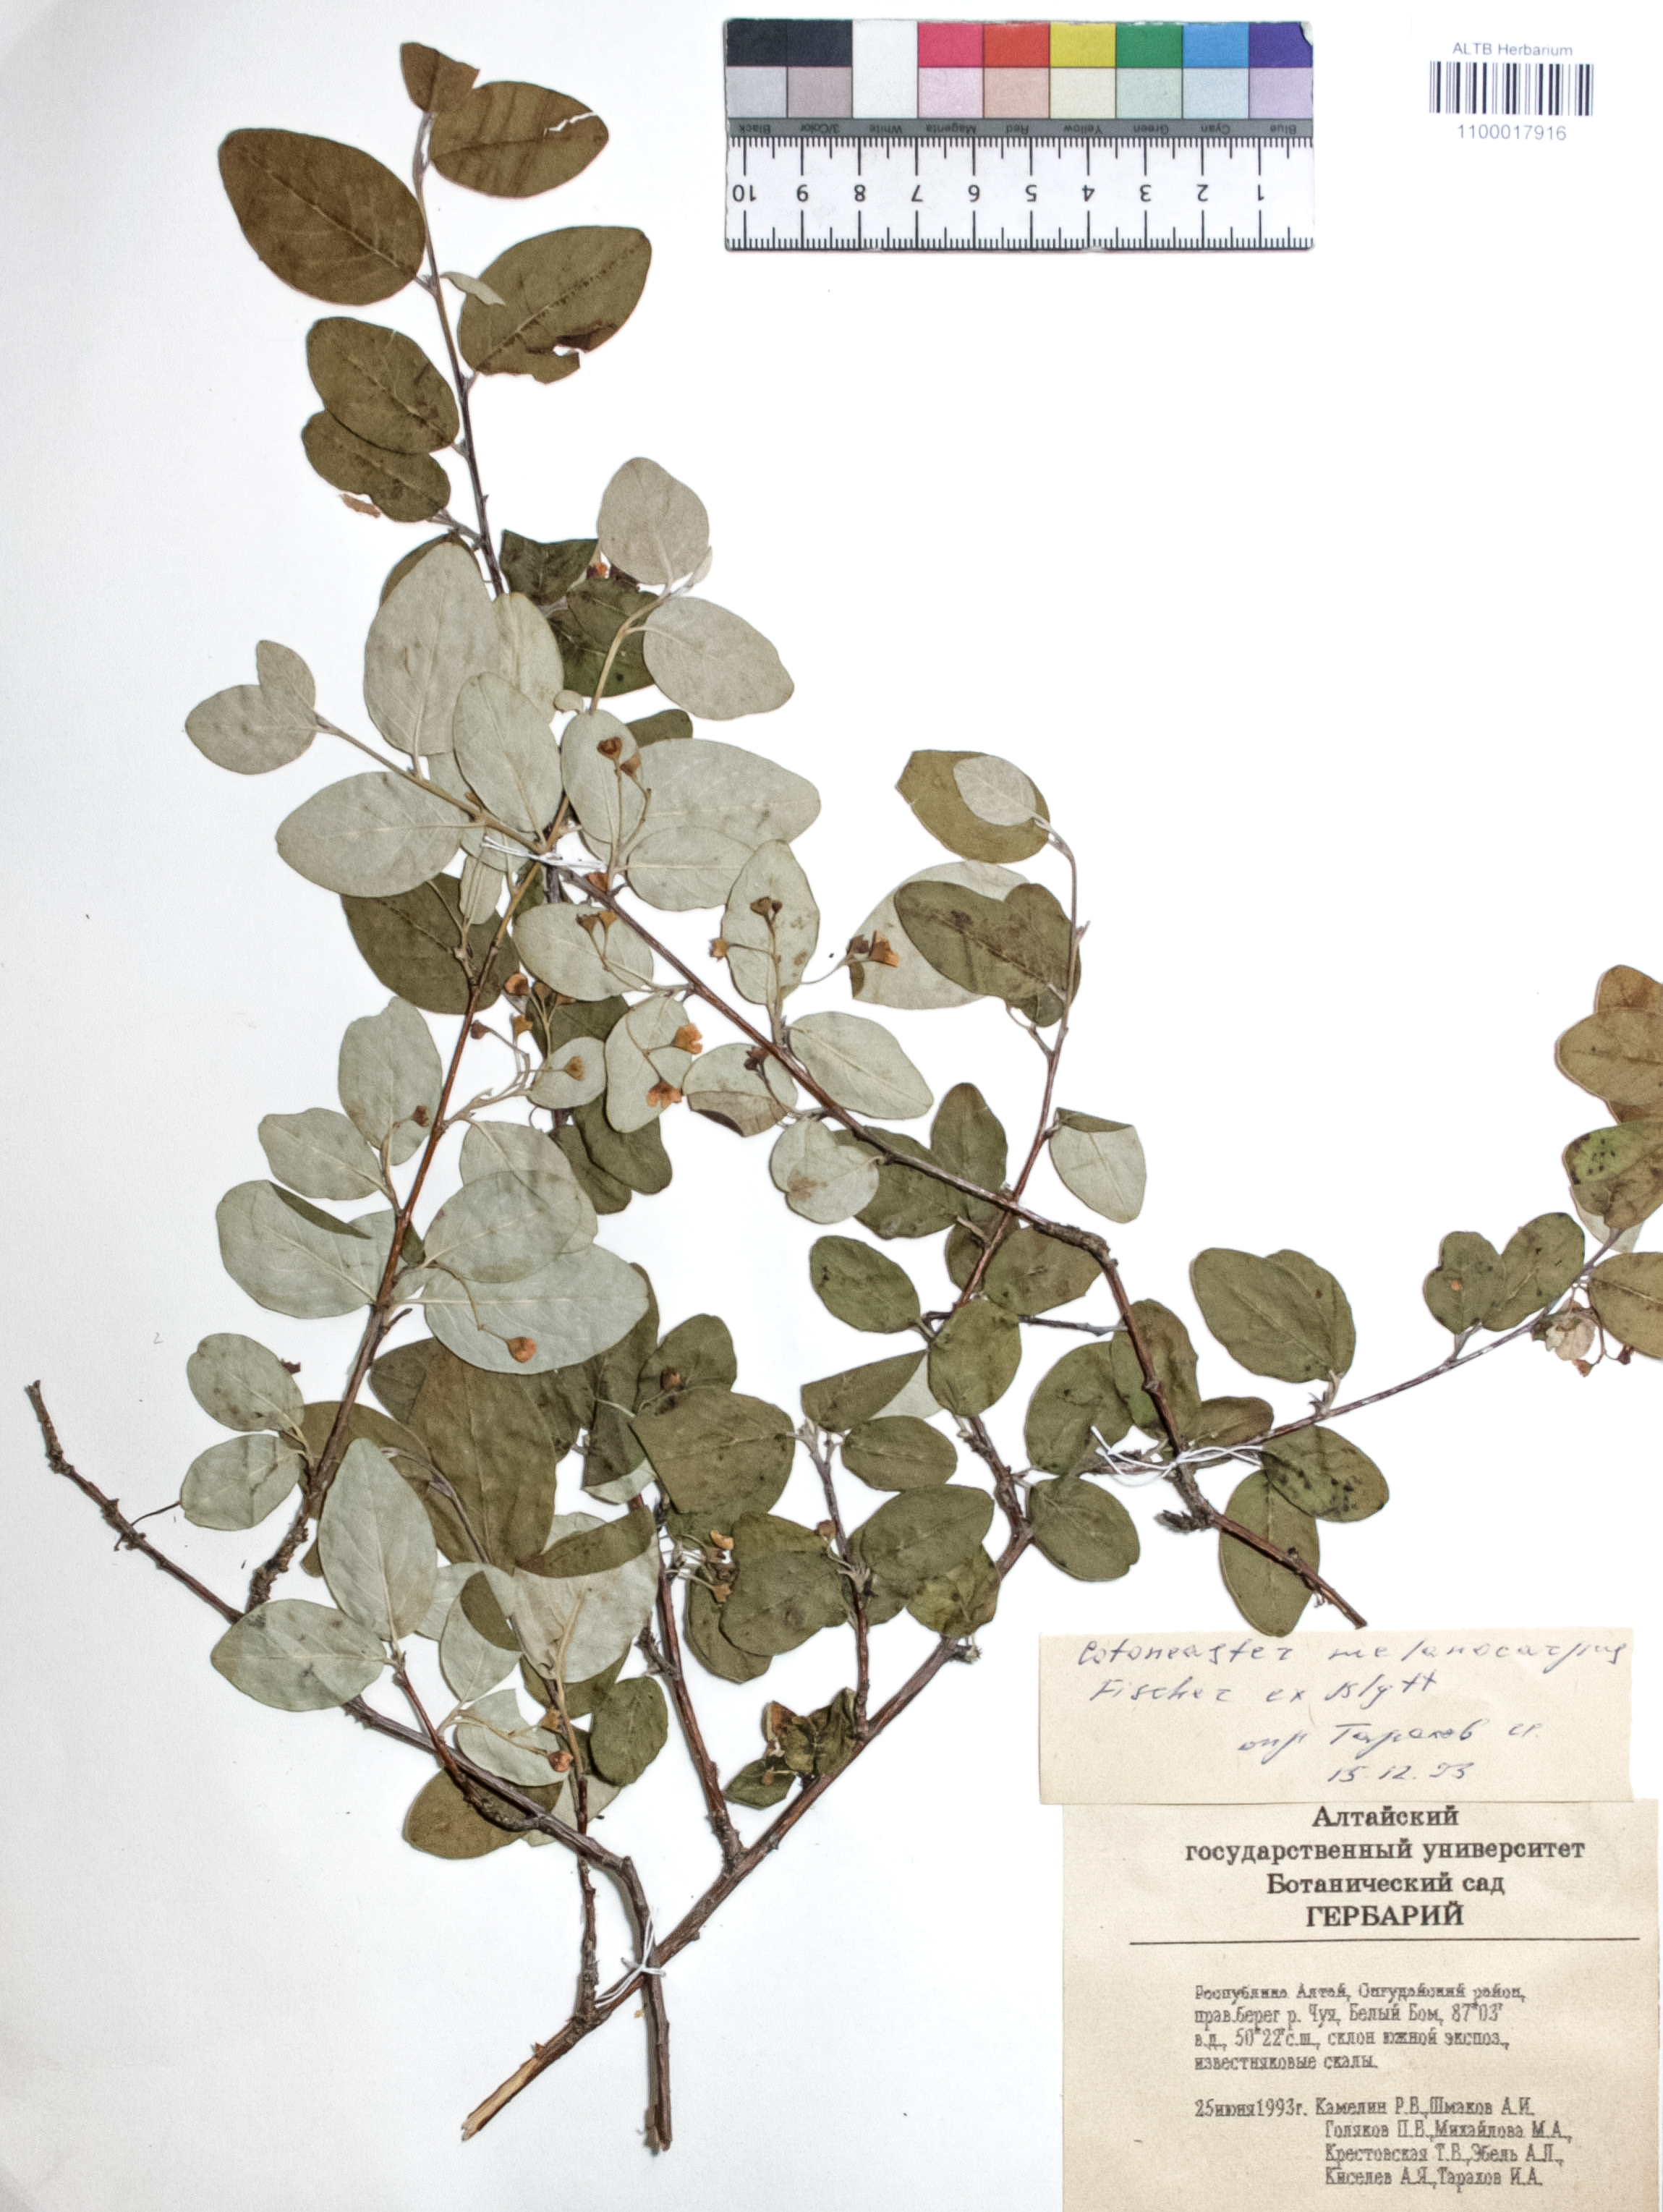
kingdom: Plantae
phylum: Tracheophyta
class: Magnoliopsida
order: Rosales
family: Rosaceae
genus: Cotoneaster
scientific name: Cotoneaster niger
